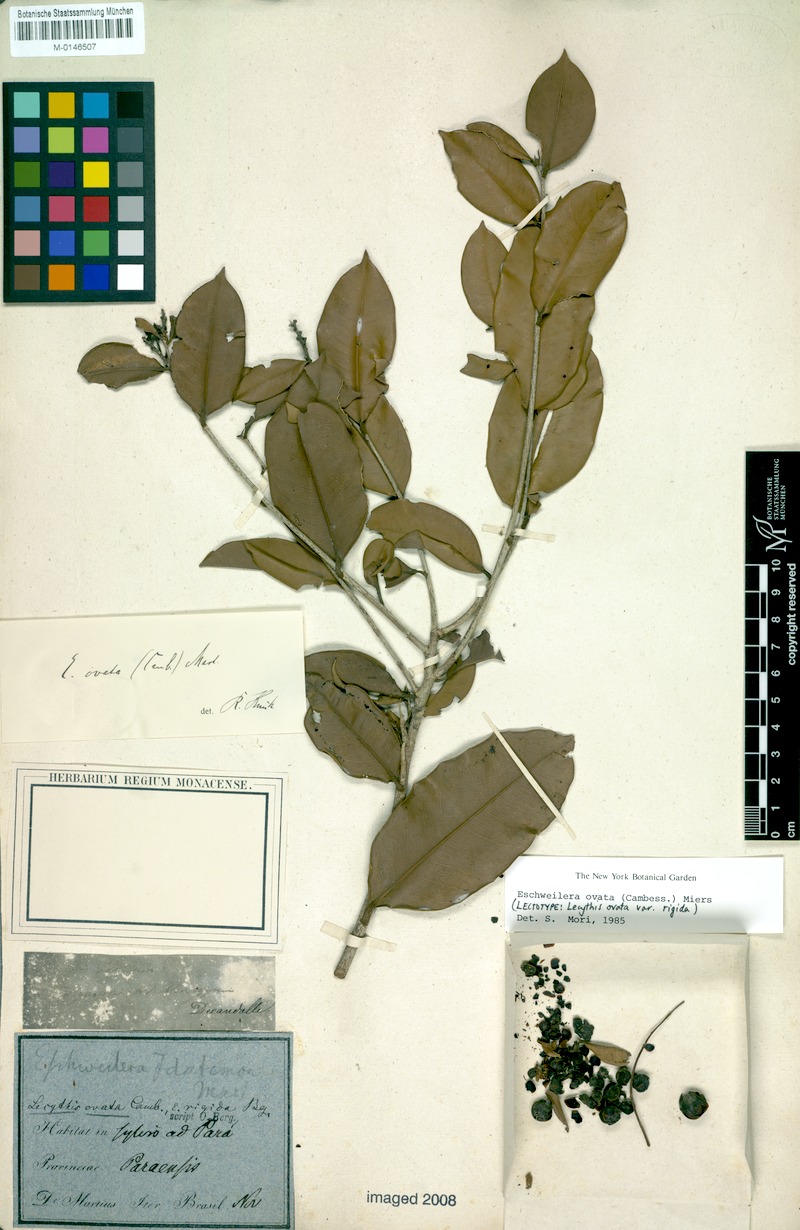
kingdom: Plantae
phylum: Tracheophyta
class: Magnoliopsida
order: Ericales
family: Lecythidaceae
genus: Eschweilera
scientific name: Eschweilera ovata
